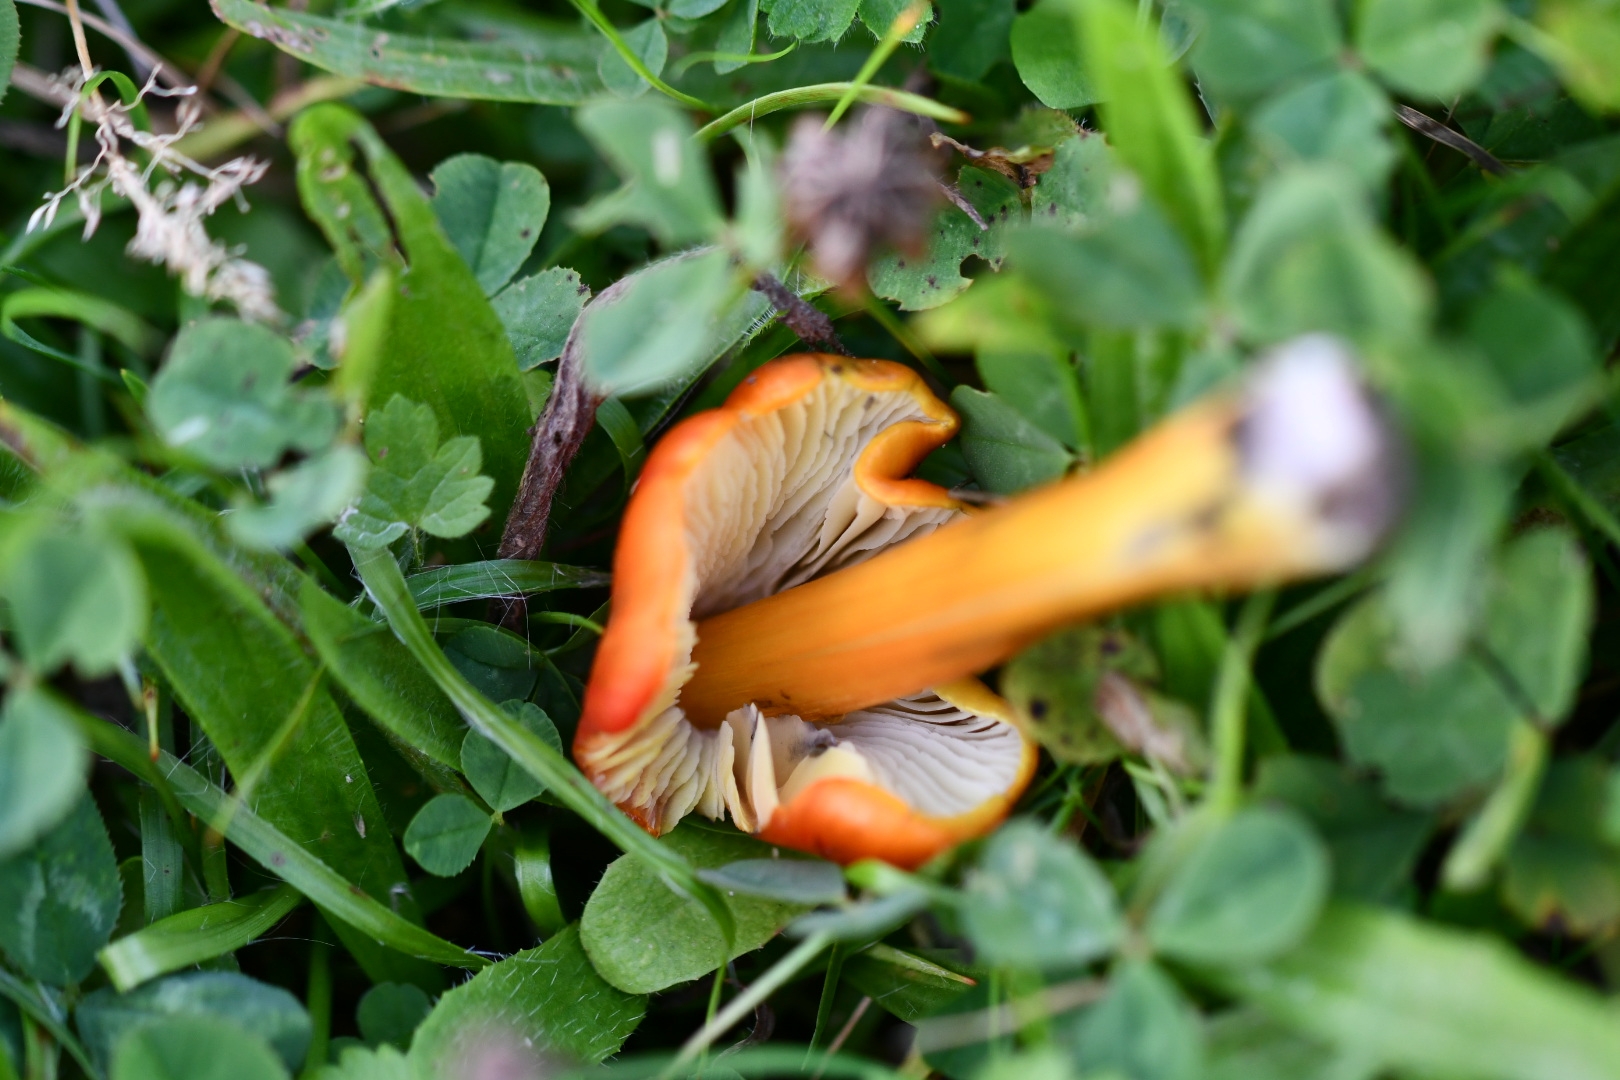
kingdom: Fungi
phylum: Basidiomycota
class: Agaricomycetes
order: Agaricales
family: Hygrophoraceae
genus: Hygrocybe
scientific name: Hygrocybe conica
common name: kegle-vokshat
